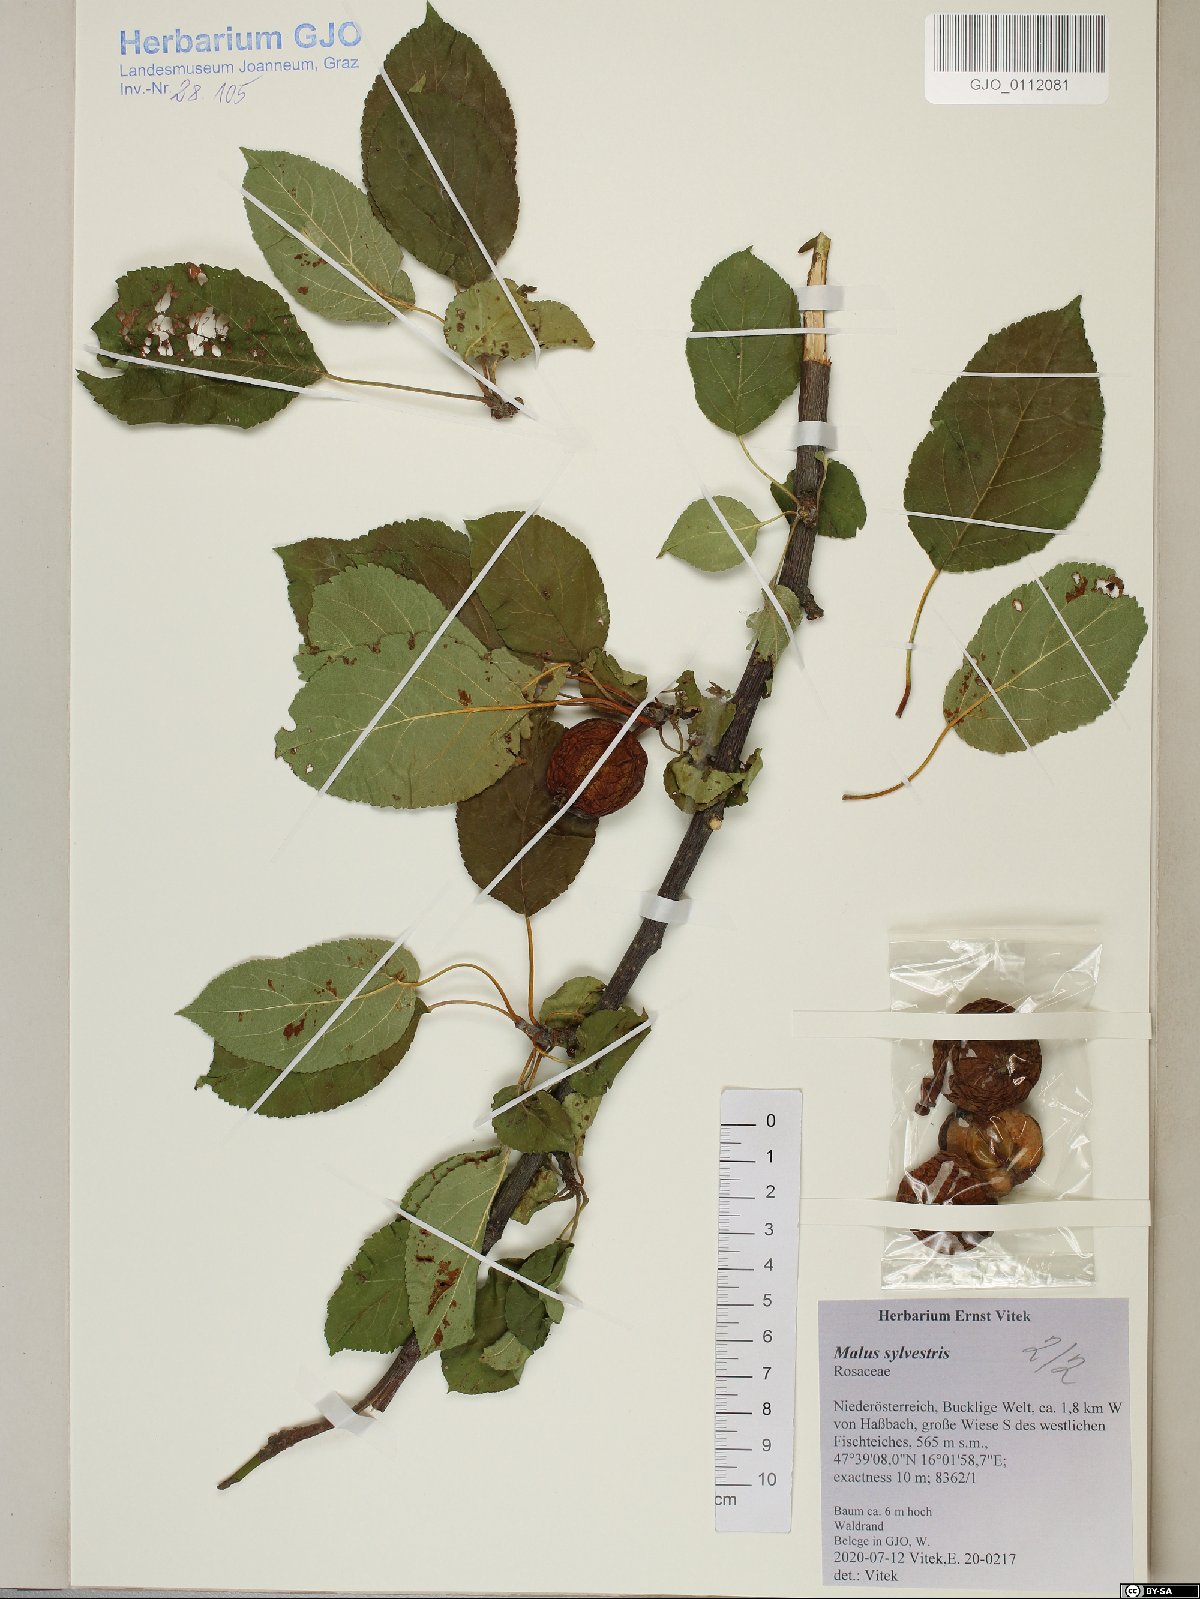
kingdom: Plantae
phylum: Tracheophyta
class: Magnoliopsida
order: Rosales
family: Rosaceae
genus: Malus
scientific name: Malus sylvestris
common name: Crab apple
